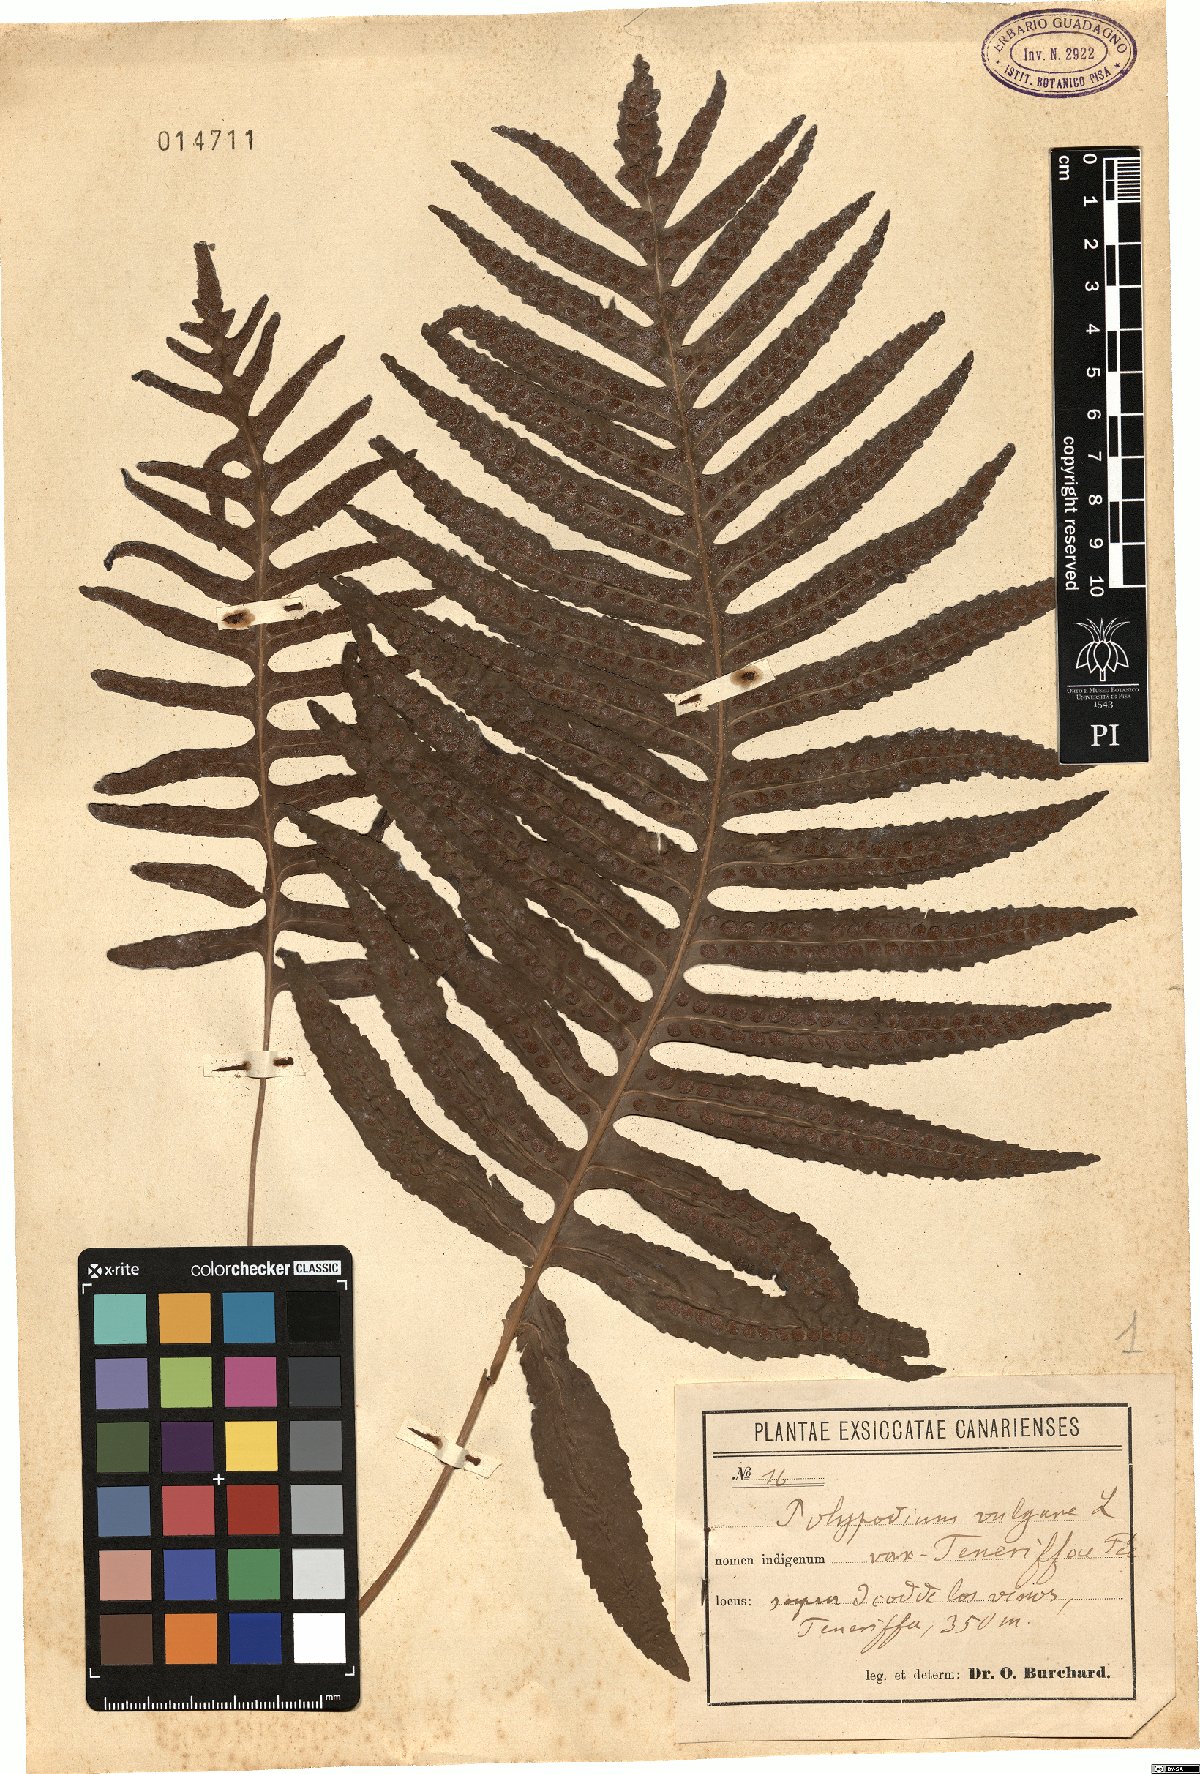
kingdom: Plantae
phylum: Tracheophyta
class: Polypodiopsida
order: Polypodiales
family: Polypodiaceae
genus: Polypodium
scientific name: Polypodium cambricum
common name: Southern polypody
